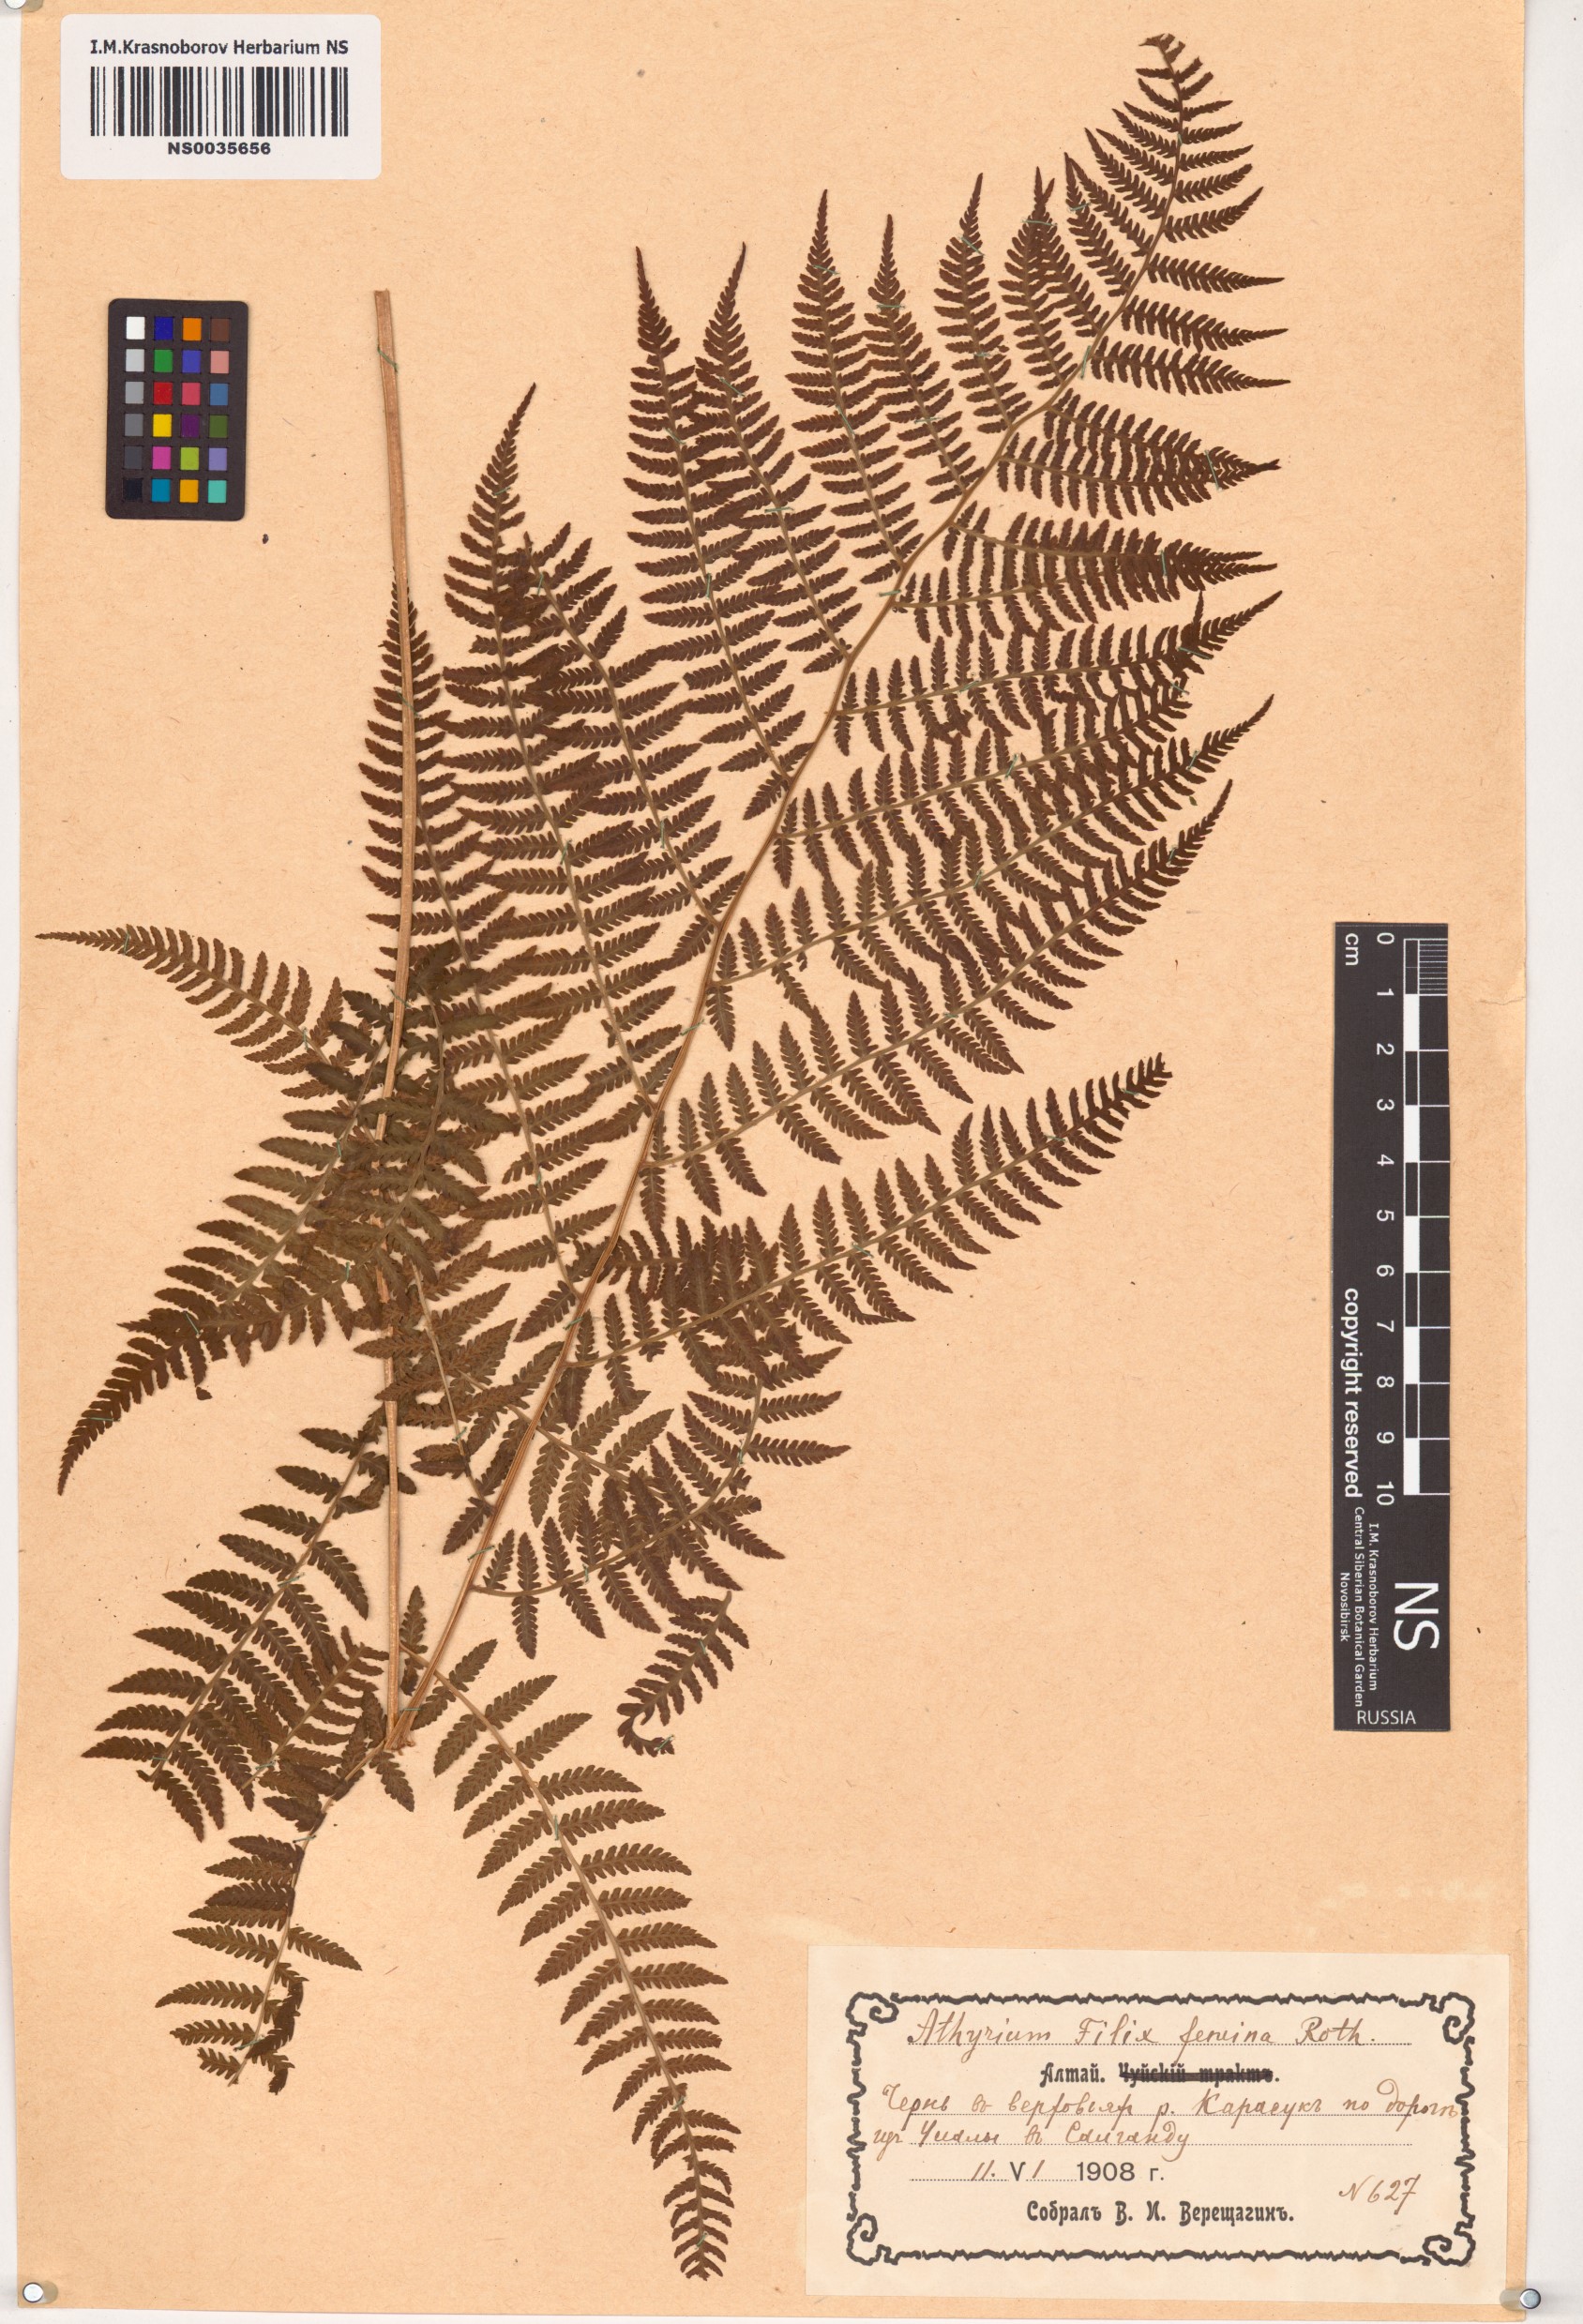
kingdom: Plantae
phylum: Tracheophyta
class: Polypodiopsida
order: Polypodiales
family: Athyriaceae
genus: Athyrium
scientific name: Athyrium filix-femina
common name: Lady fern
